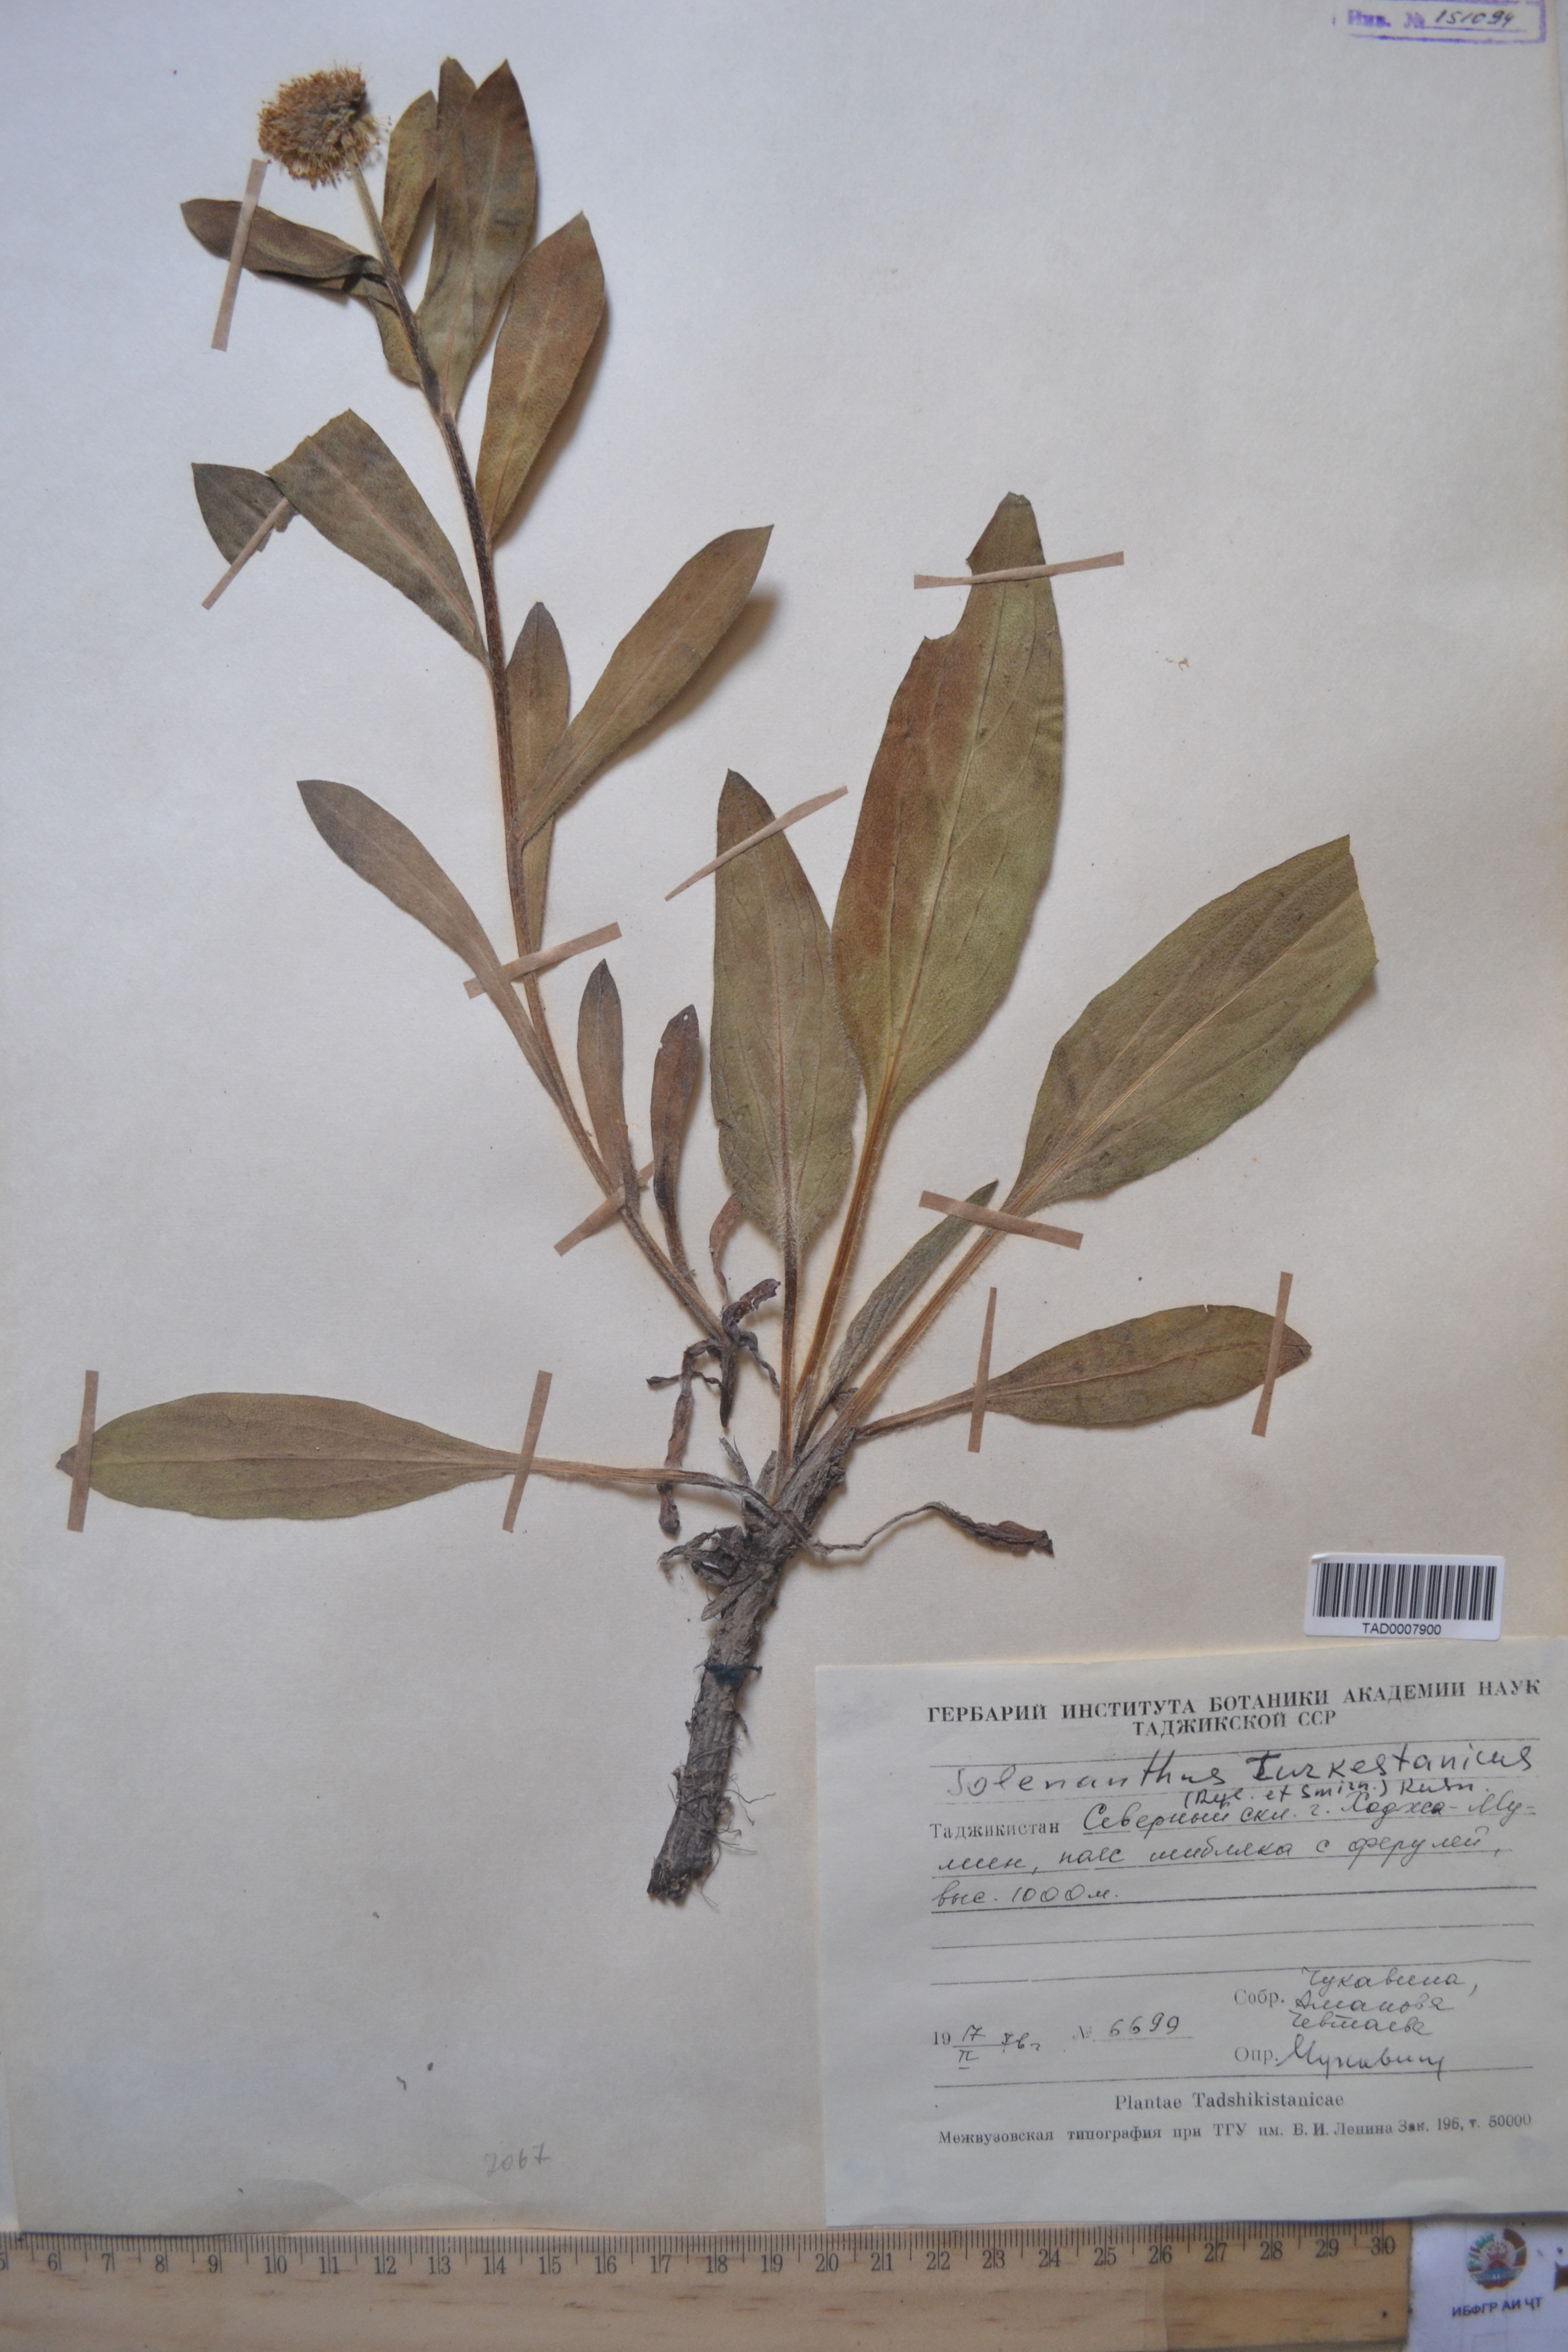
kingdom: Plantae
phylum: Tracheophyta
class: Magnoliopsida
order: Boraginales
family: Boraginaceae
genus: Solenanthus
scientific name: Solenanthus turkestanicus
